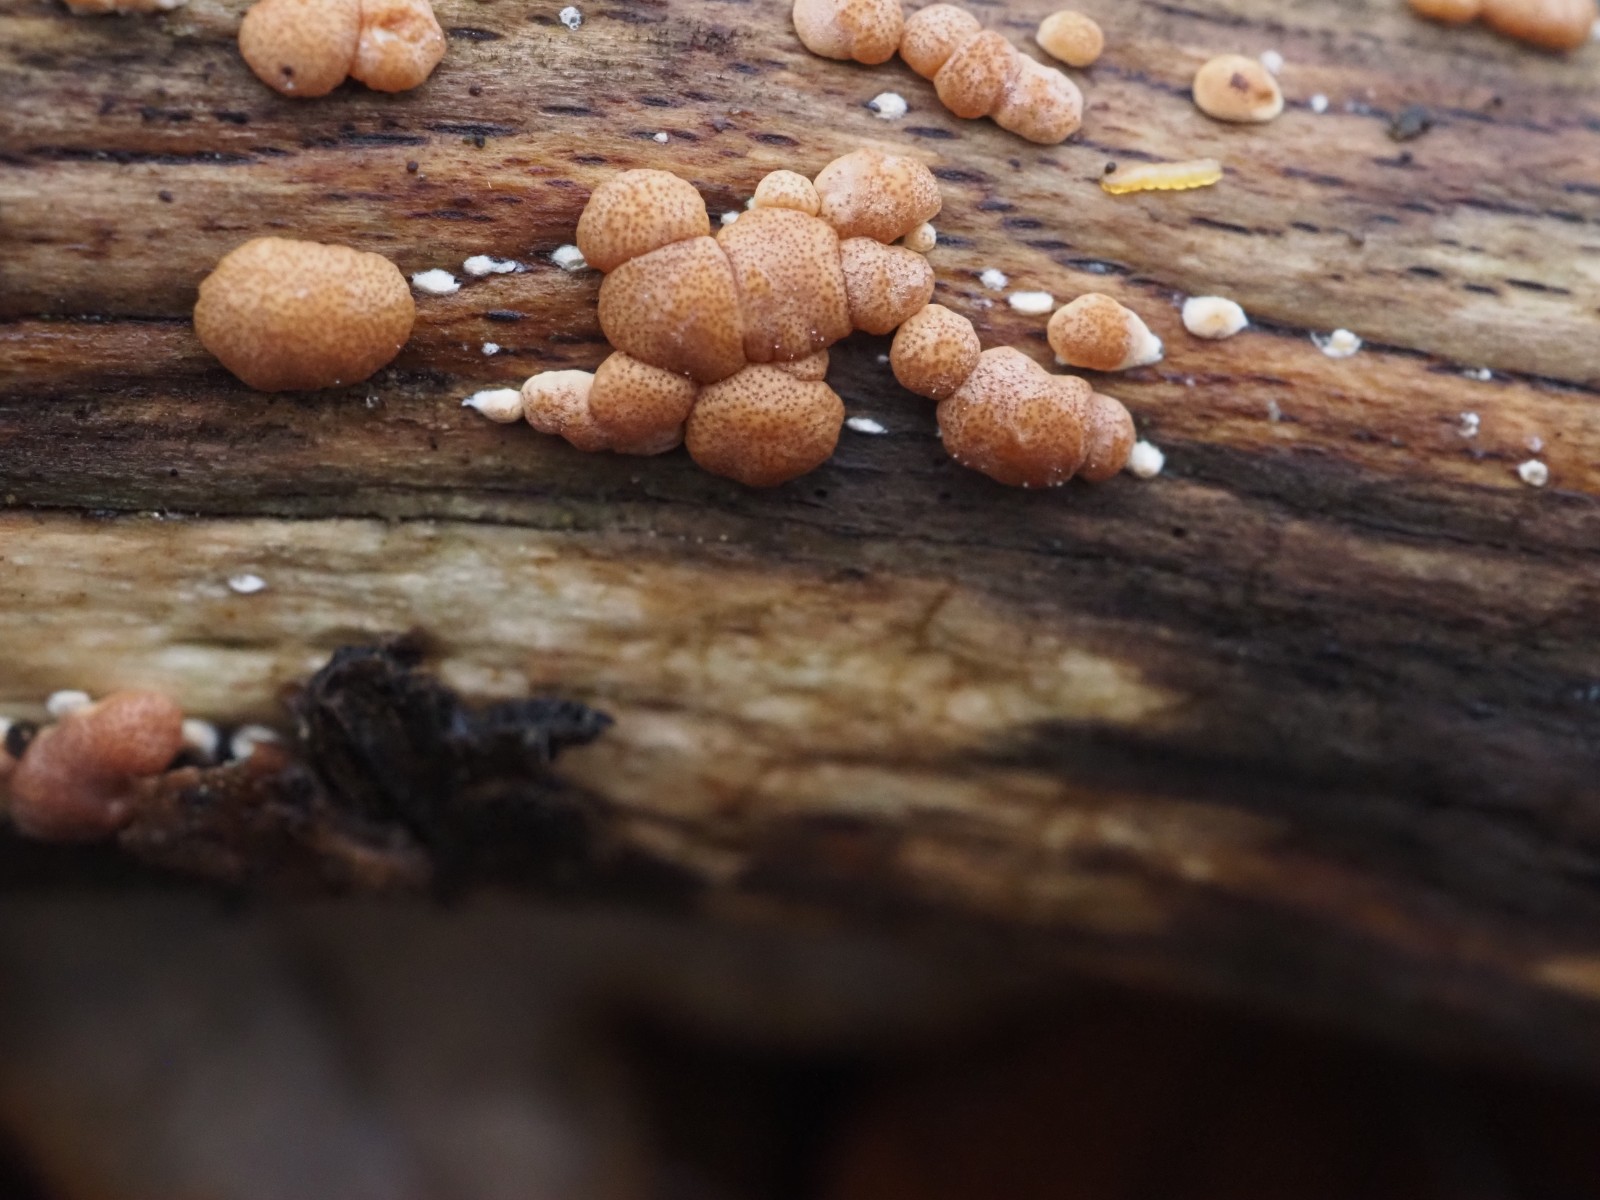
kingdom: Fungi
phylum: Ascomycota
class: Sordariomycetes
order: Hypocreales
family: Hypocreaceae
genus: Trichoderma
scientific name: Trichoderma europaeum
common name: rosabrun kødkerne
